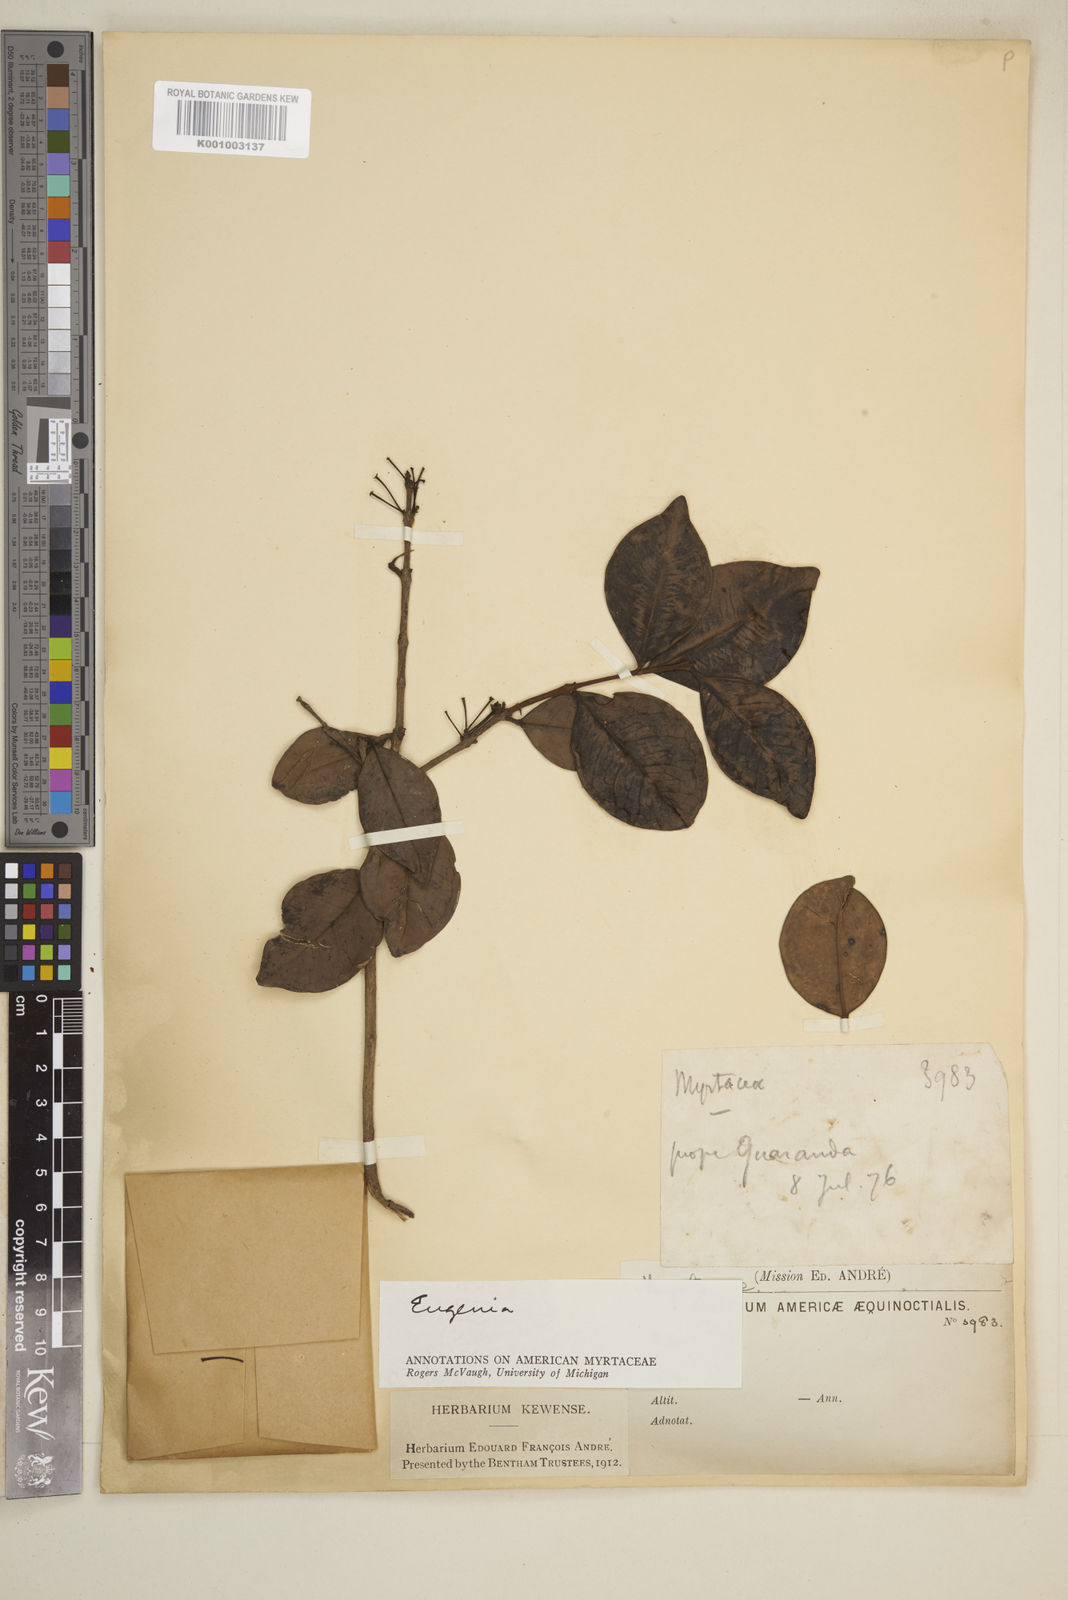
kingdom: Plantae
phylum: Tracheophyta
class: Magnoliopsida
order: Myrtales
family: Myrtaceae
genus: Eugenia
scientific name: Eugenia
